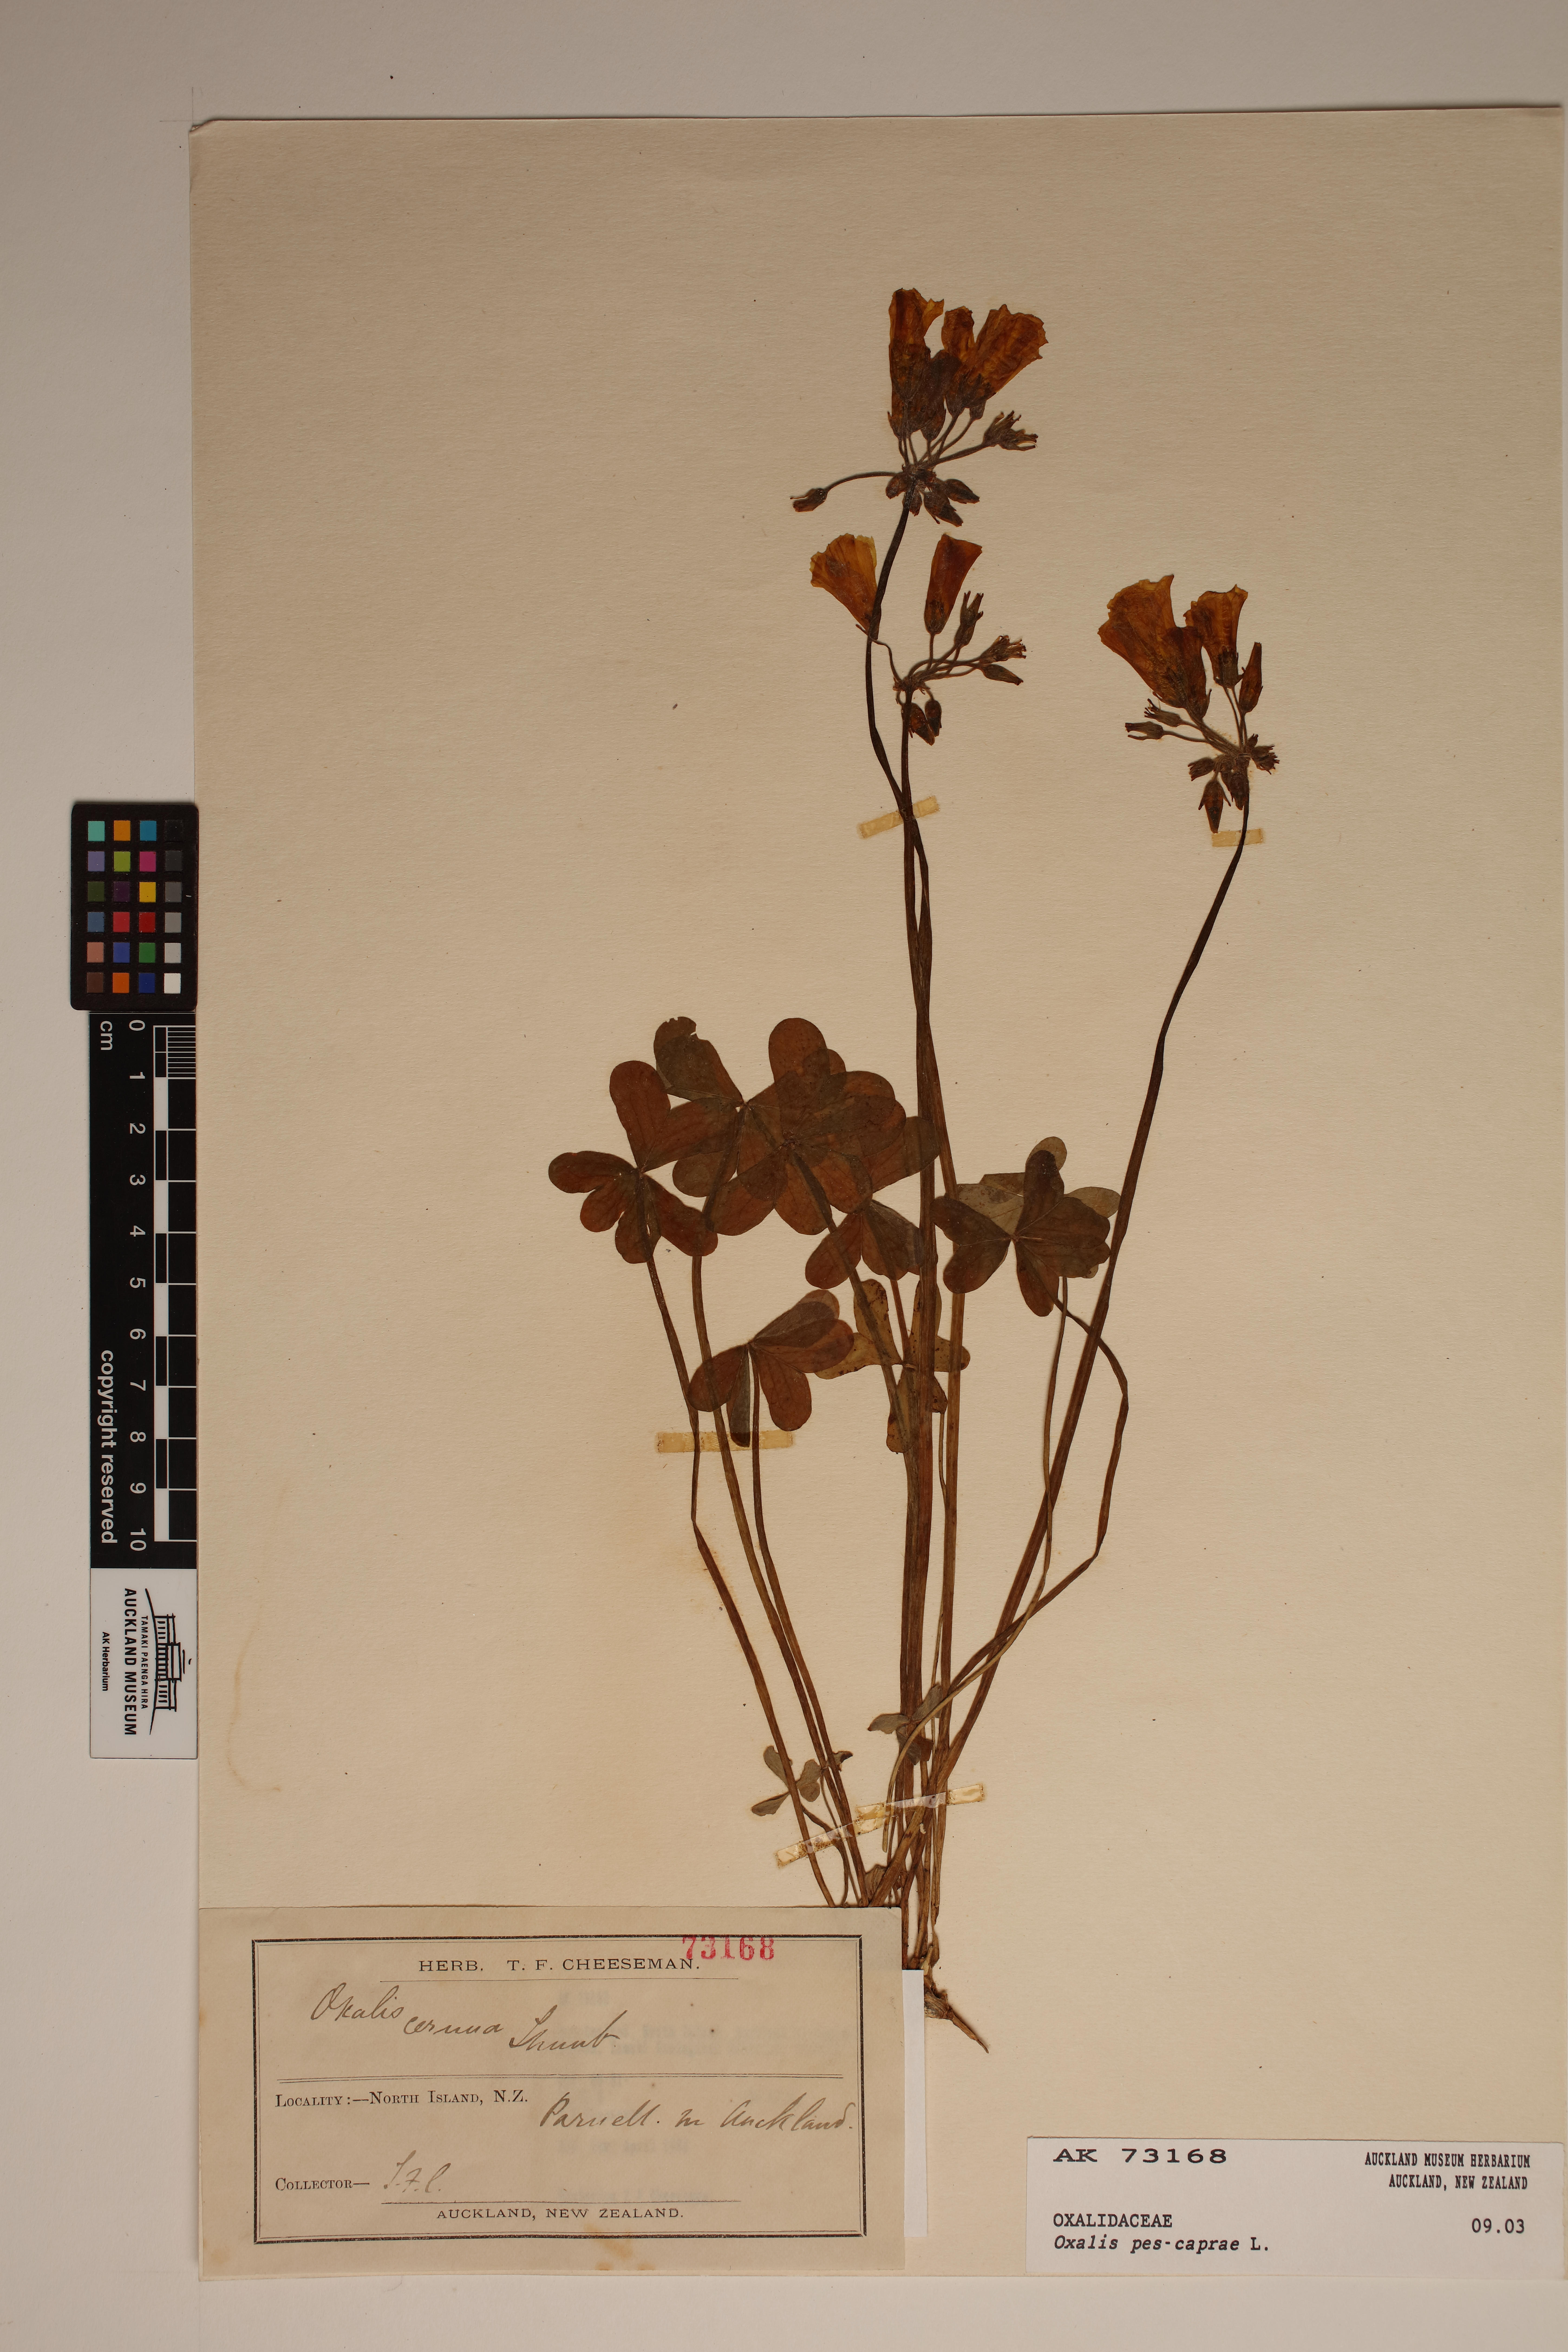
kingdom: Plantae
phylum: Tracheophyta
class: Magnoliopsida
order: Oxalidales
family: Oxalidaceae
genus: Oxalis
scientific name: Oxalis pes-caprae
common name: Bermuda-buttercup
